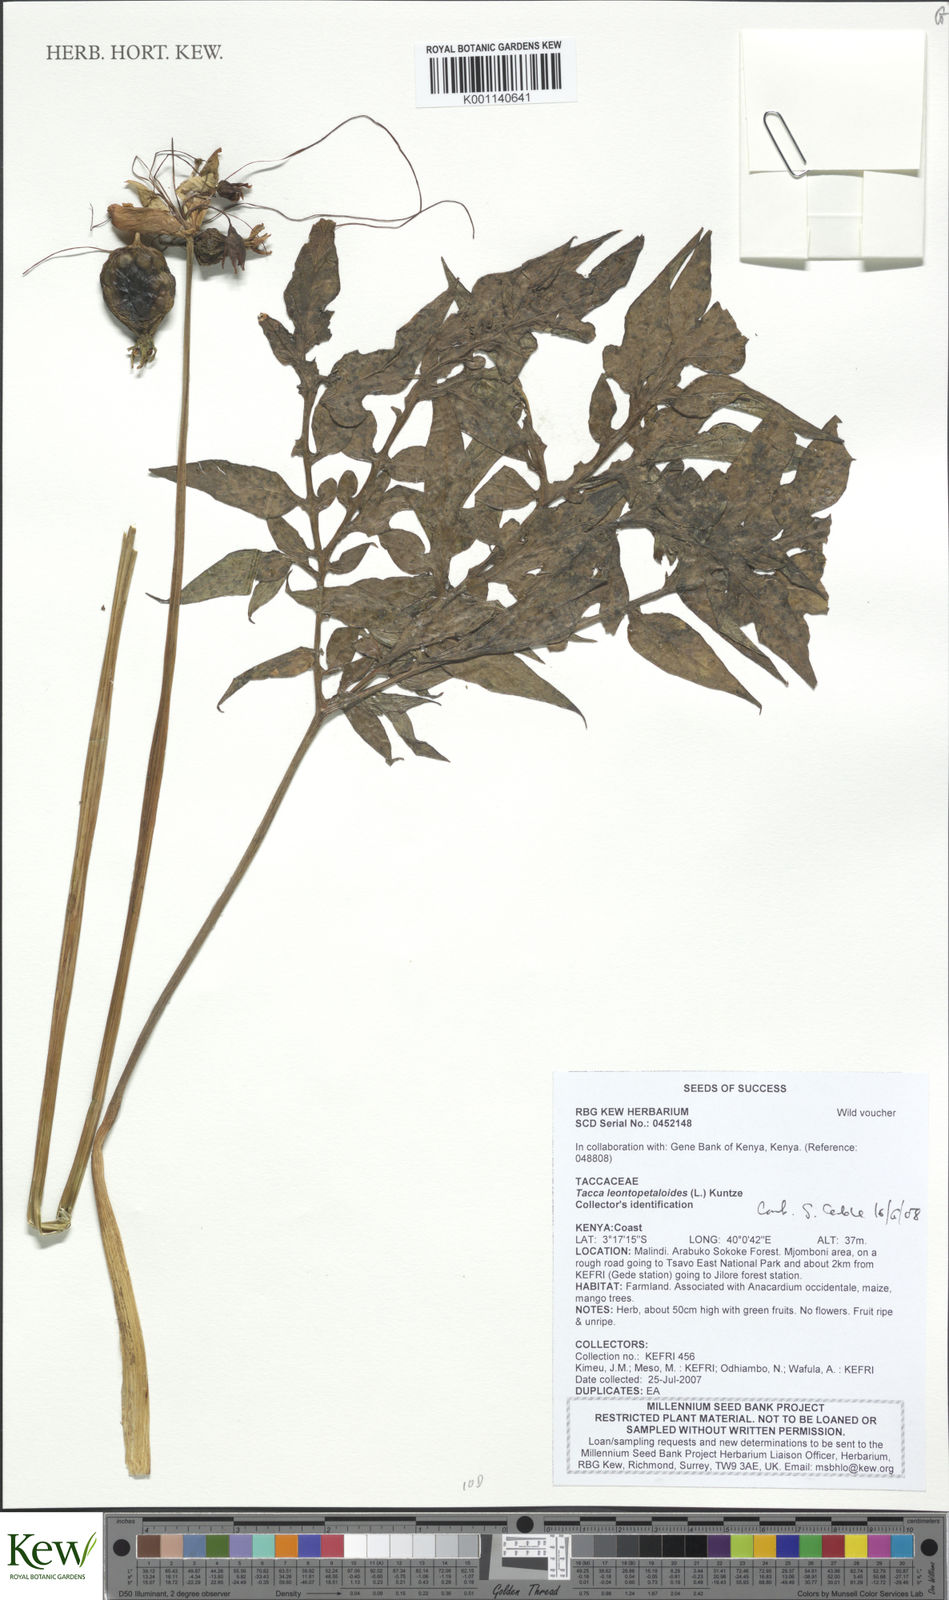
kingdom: Plantae
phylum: Tracheophyta
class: Liliopsida
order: Dioscoreales
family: Dioscoreaceae
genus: Tacca
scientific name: Tacca leontopetaloides
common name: Arrowroot
